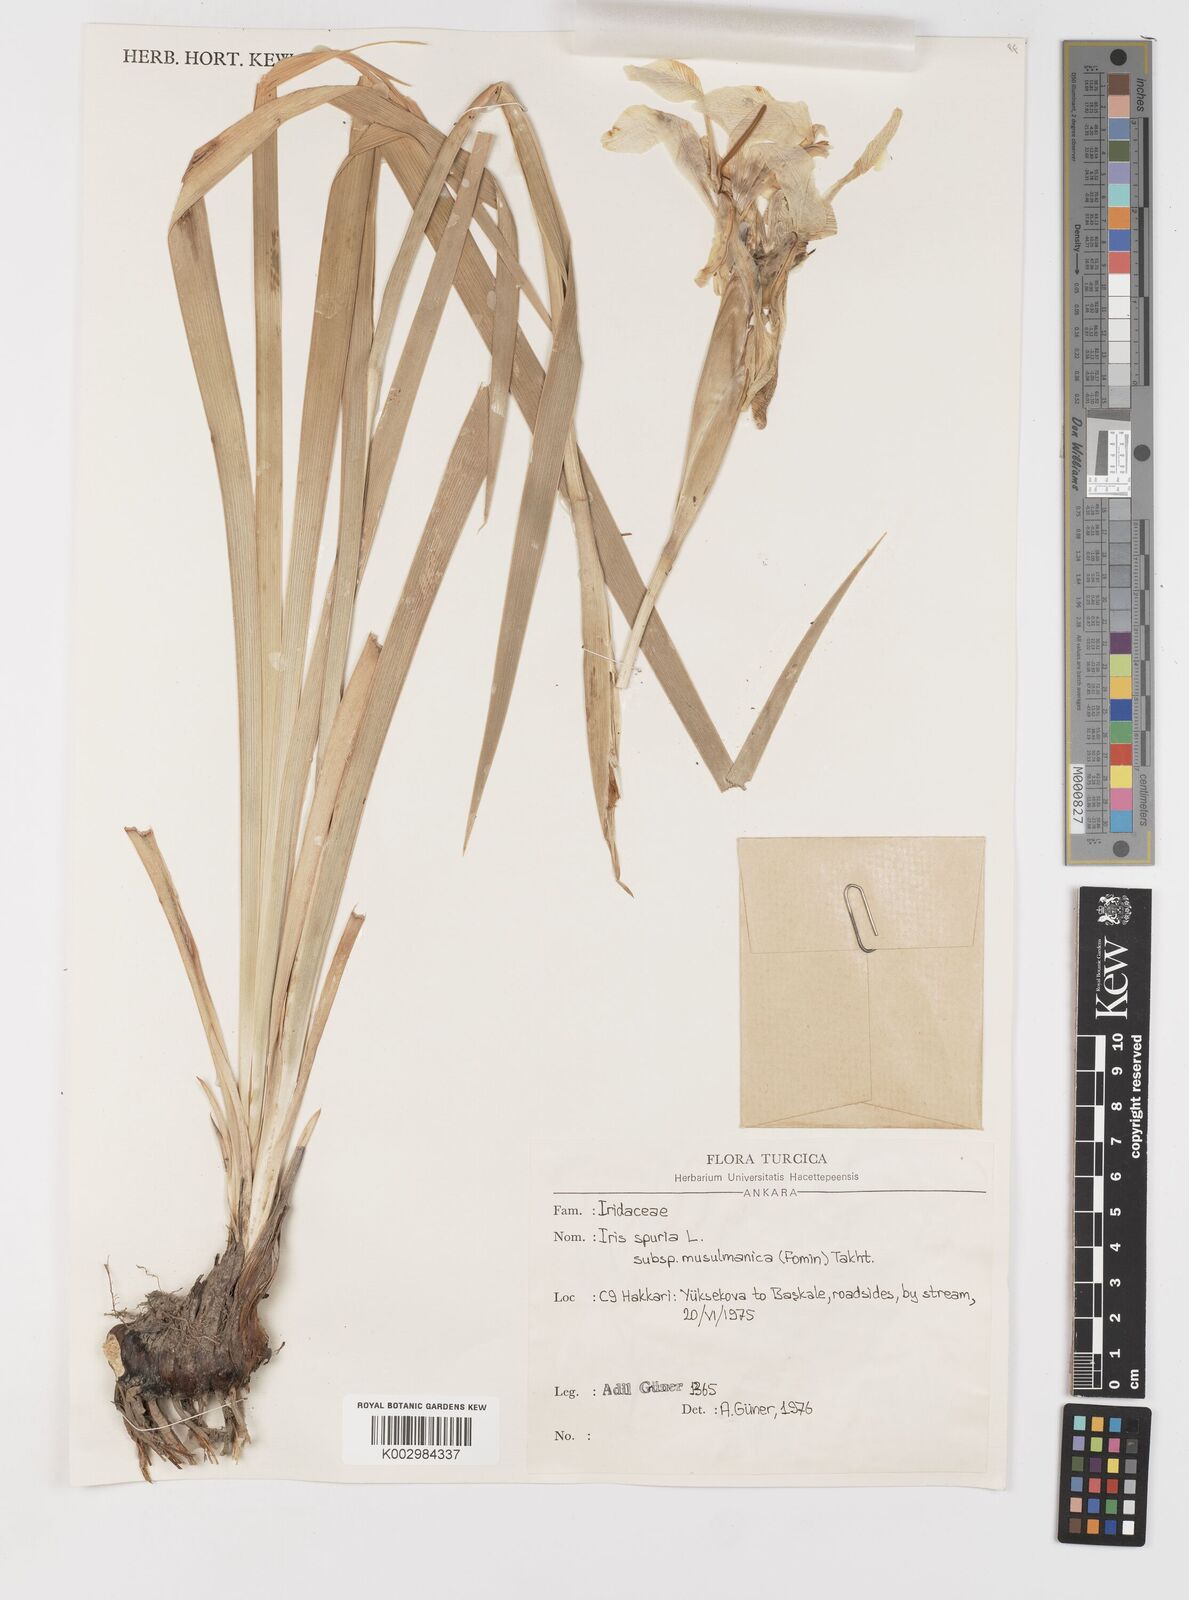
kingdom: Plantae
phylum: Tracheophyta
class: Liliopsida
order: Asparagales
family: Iridaceae
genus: Iris
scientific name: Iris
